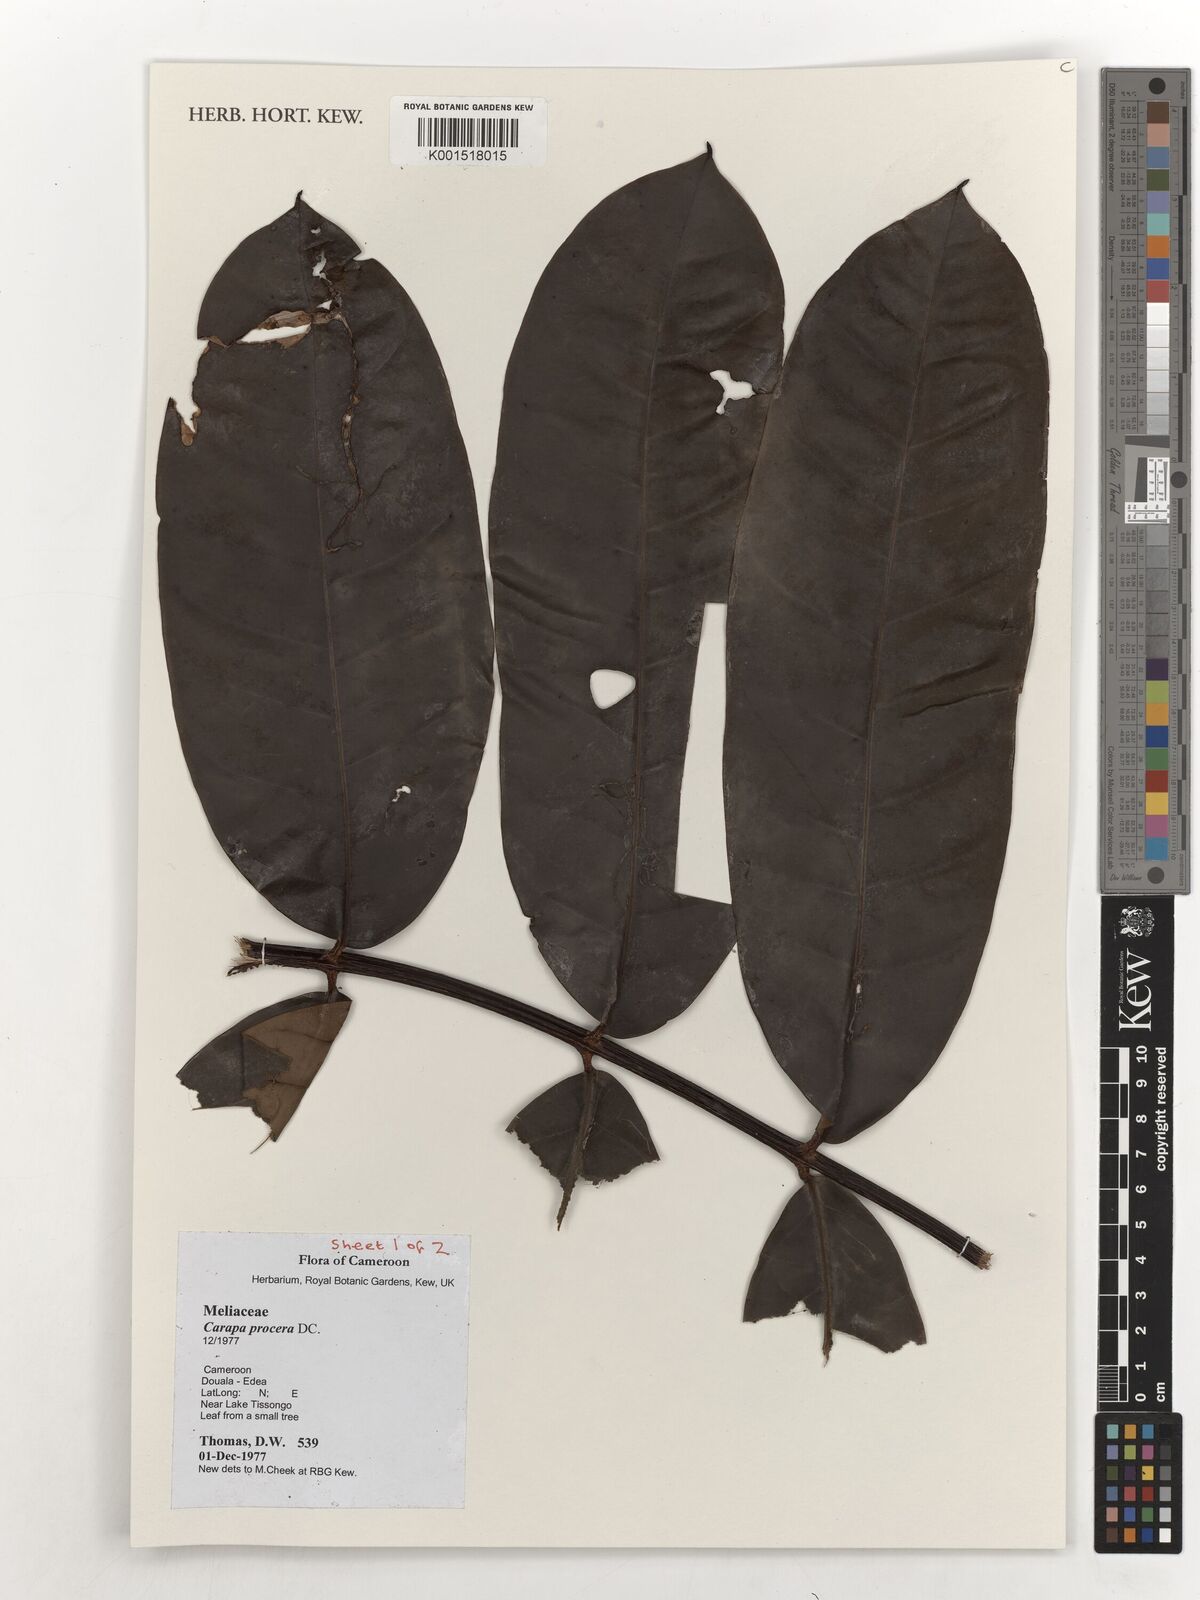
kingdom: Plantae
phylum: Tracheophyta
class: Magnoliopsida
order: Sapindales
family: Meliaceae
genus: Carapa
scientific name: Carapa procera
